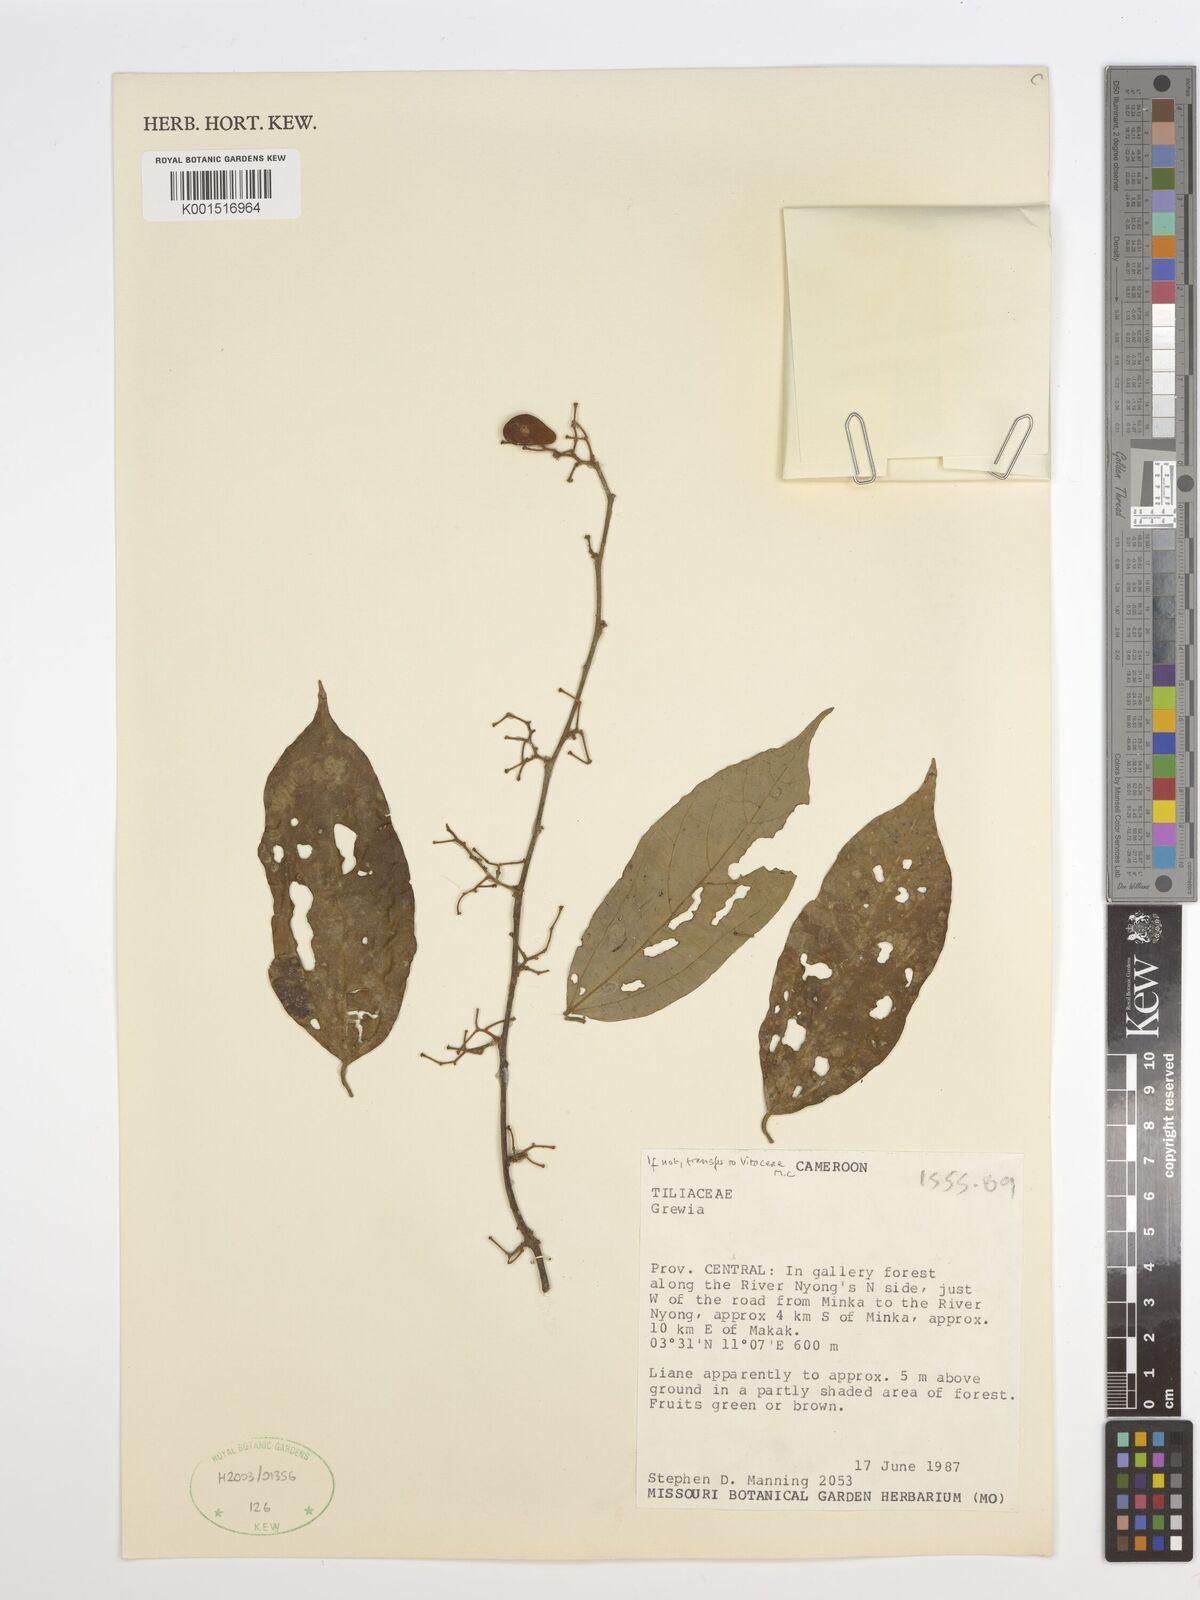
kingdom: Plantae
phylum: Tracheophyta
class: Magnoliopsida
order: Malvales
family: Malvaceae
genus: Grewia
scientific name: Grewia
